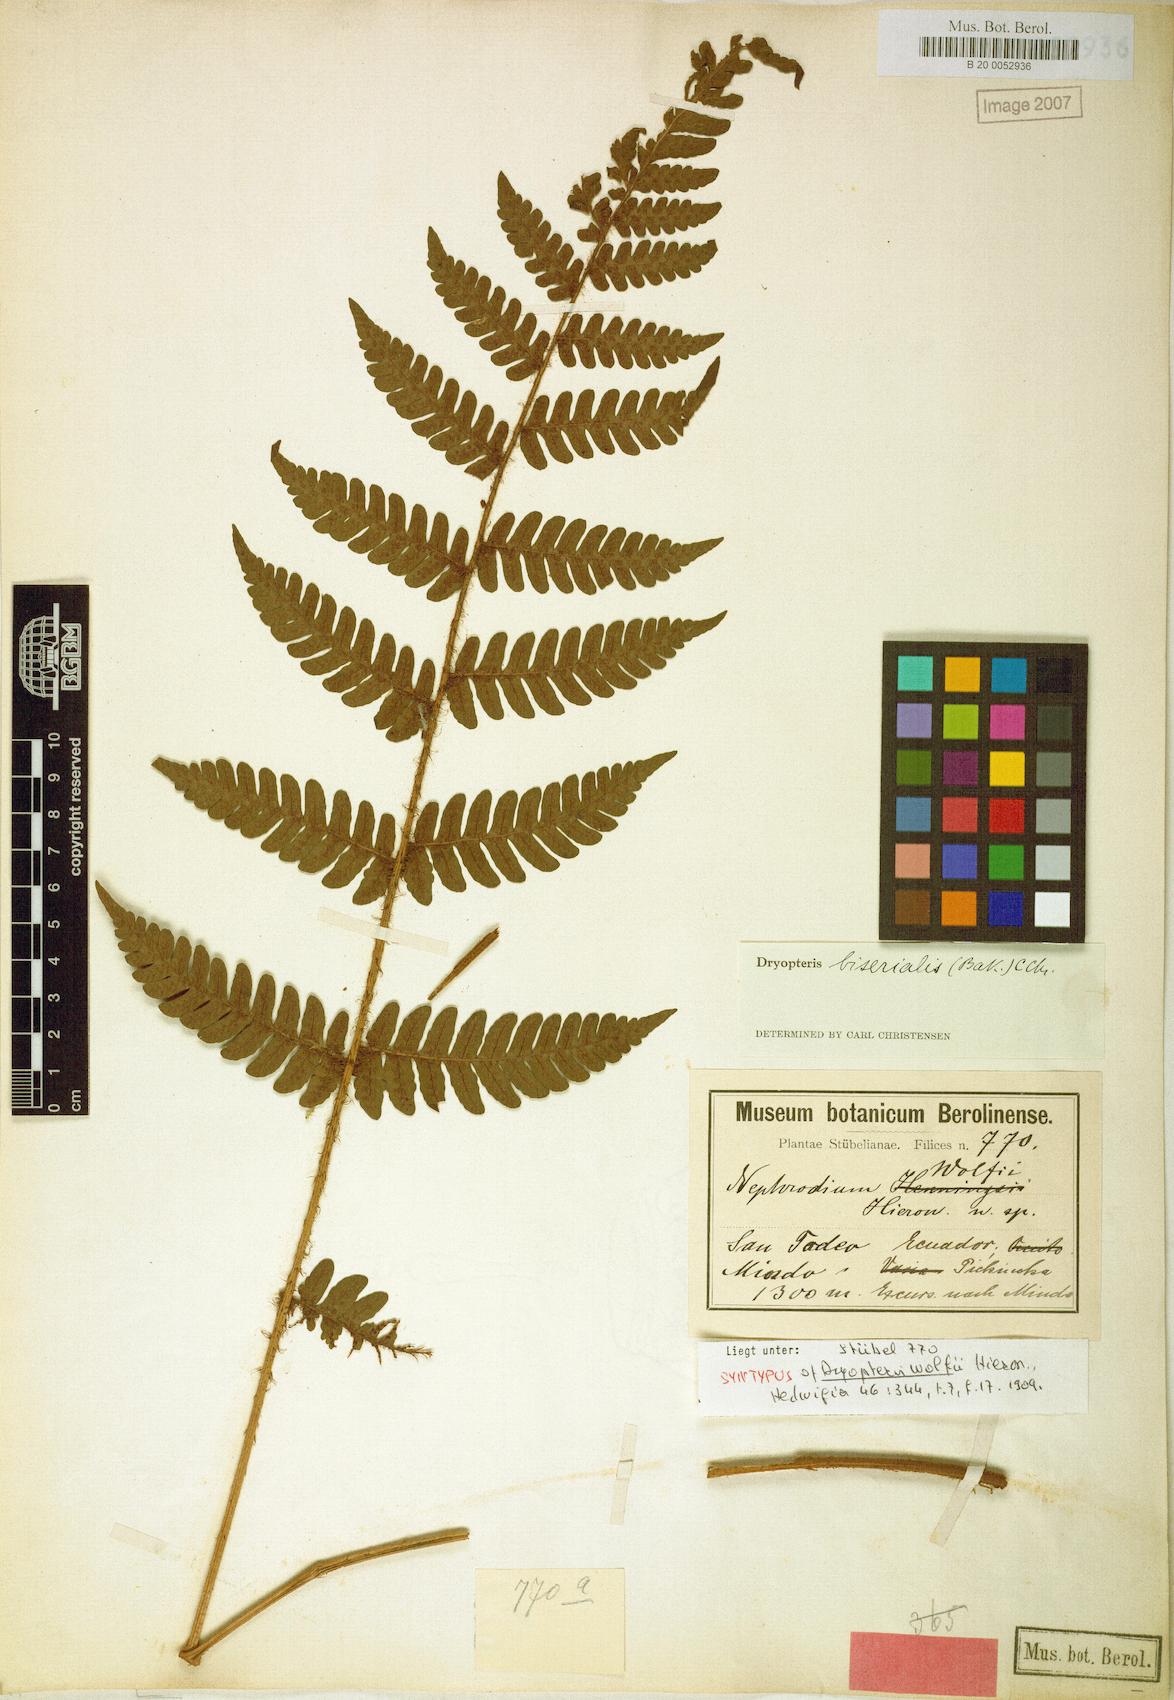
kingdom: Plantae
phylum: Tracheophyta
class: Polypodiopsida
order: Polypodiales
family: Dryopteridaceae
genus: Megalastrum
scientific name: Megalastrum biseriale
